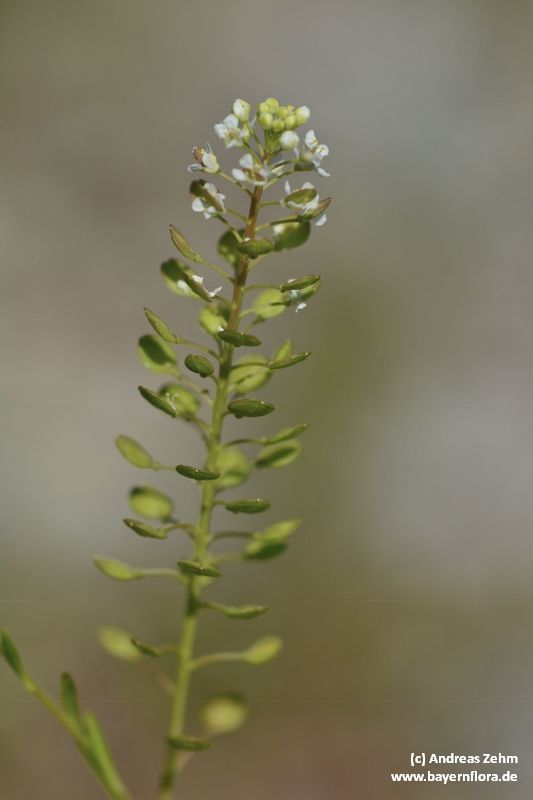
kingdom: Plantae
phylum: Tracheophyta
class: Magnoliopsida
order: Brassicales
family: Brassicaceae
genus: Lepidium
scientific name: Lepidium virginicum
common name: Least pepperwort
